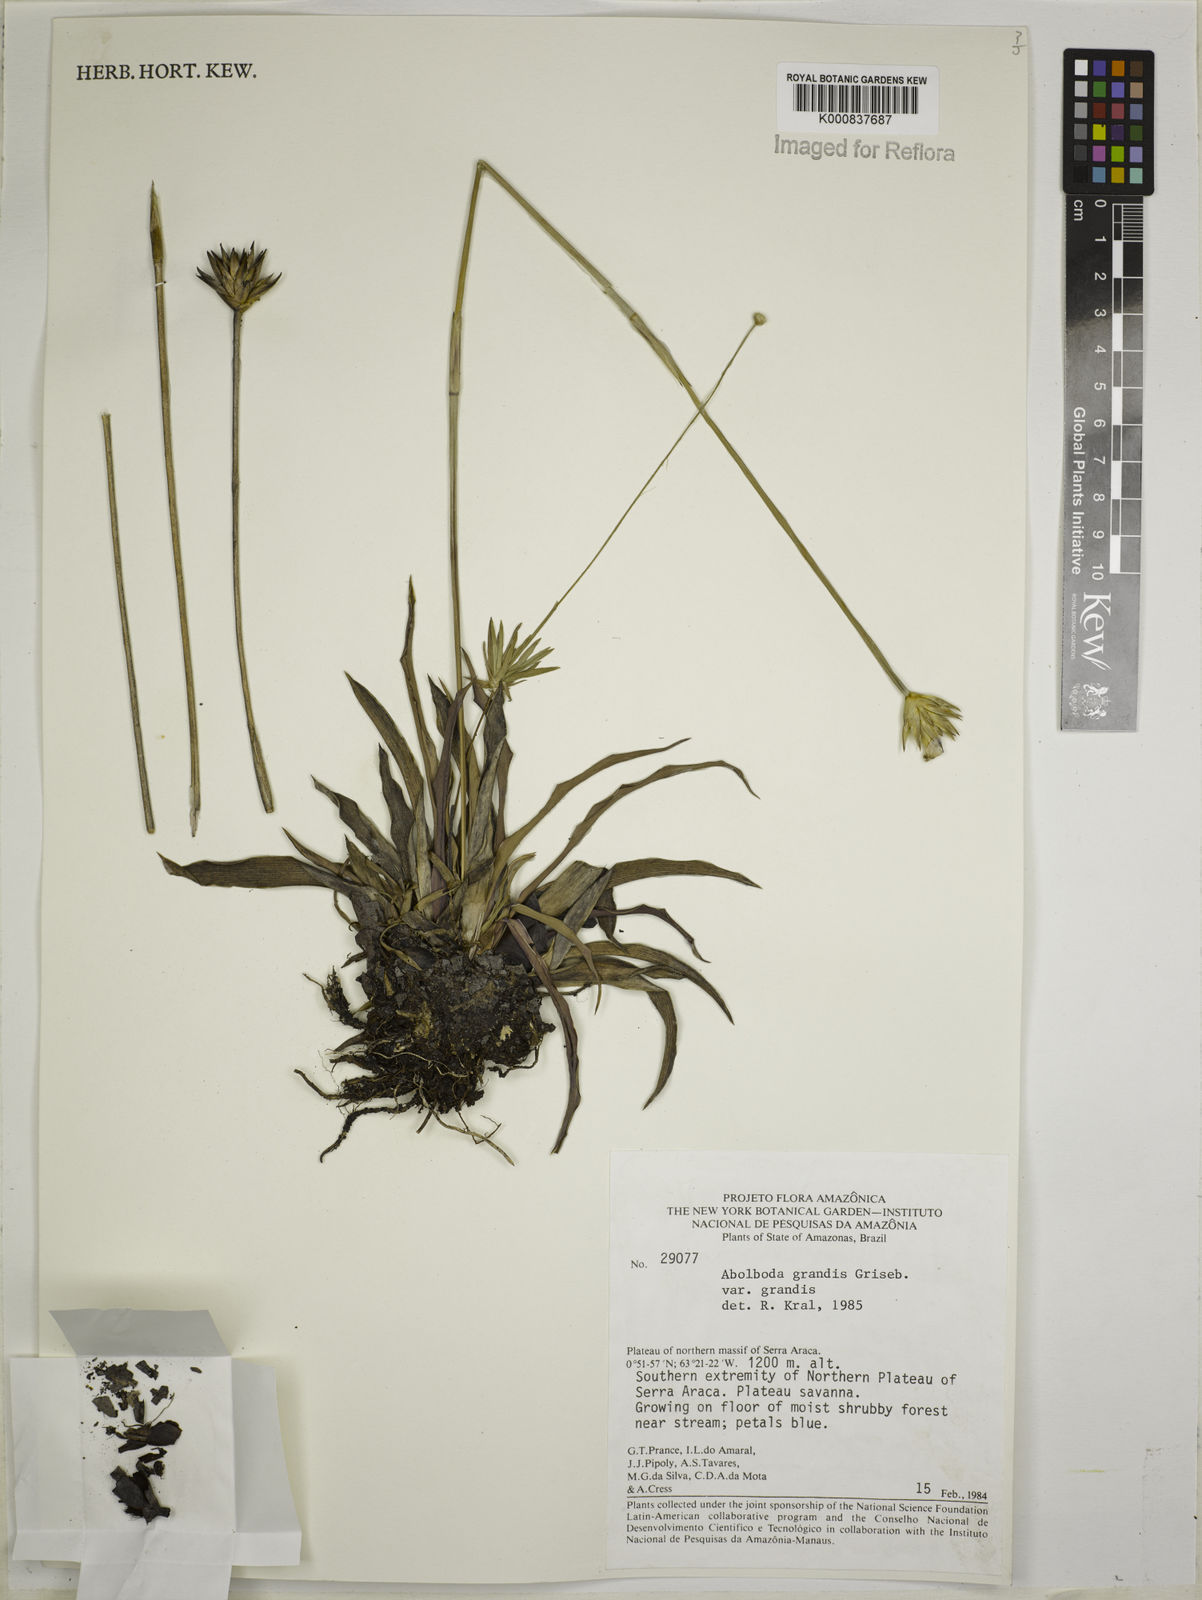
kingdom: Plantae
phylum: Tracheophyta
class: Liliopsida
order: Poales
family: Xyridaceae
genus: Abolboda
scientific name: Abolboda grandis
